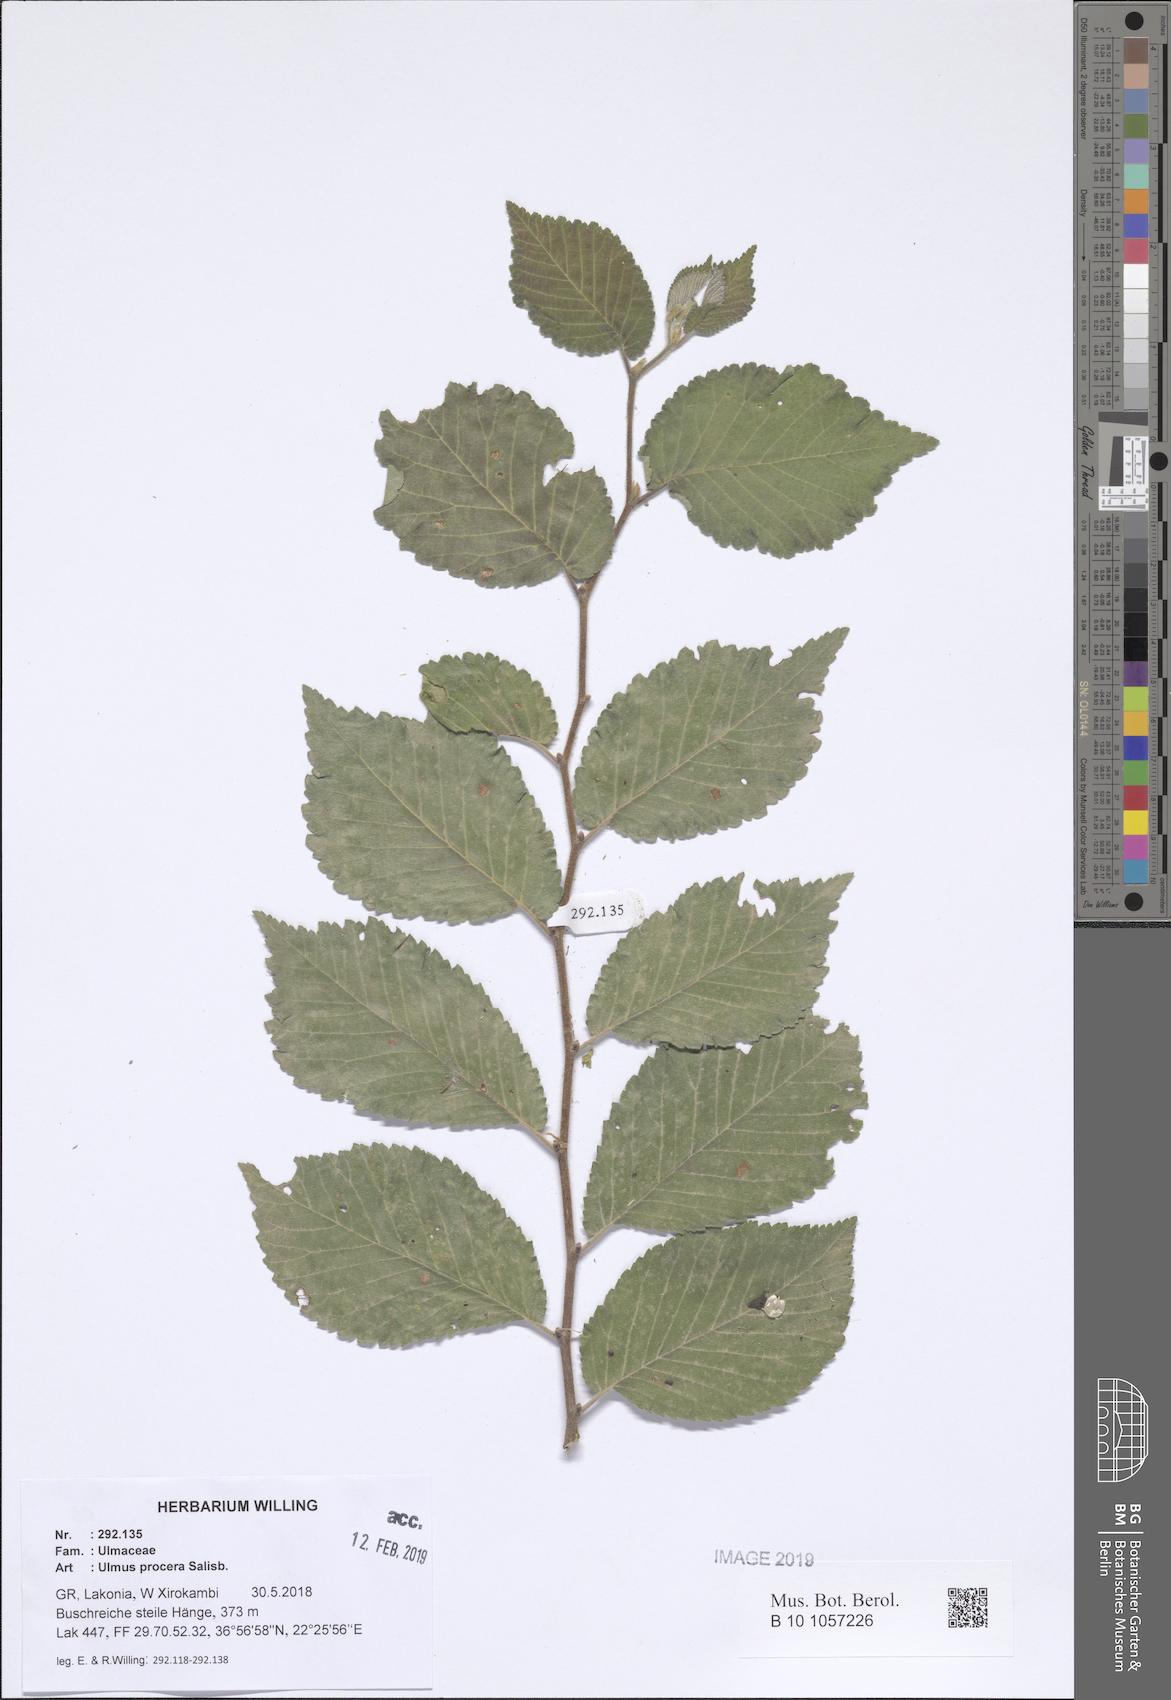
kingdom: Plantae
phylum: Tracheophyta
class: Magnoliopsida
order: Rosales
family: Ulmaceae
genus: Ulmus
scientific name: Ulmus minor
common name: Small-leaved elm
